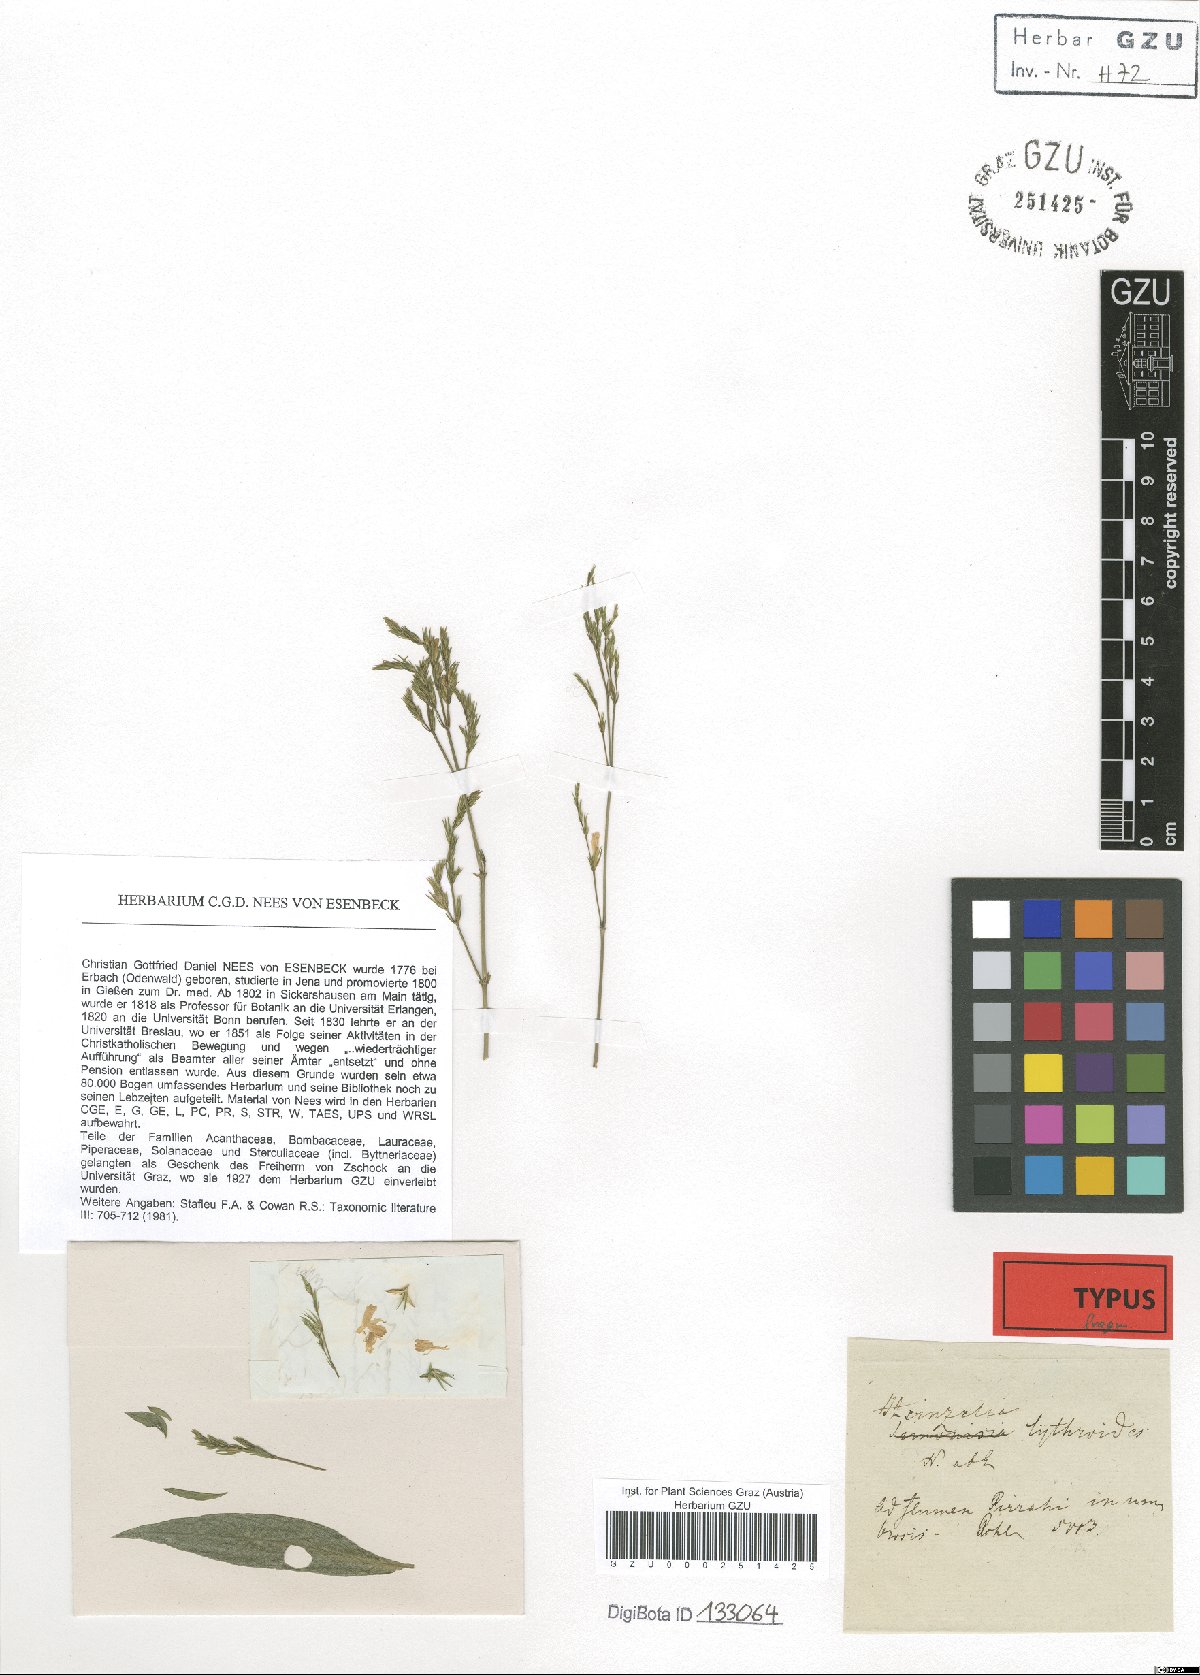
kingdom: Plantae
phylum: Tracheophyta
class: Magnoliopsida
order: Lamiales
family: Acanthaceae
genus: Justicia
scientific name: Justicia lythroides
